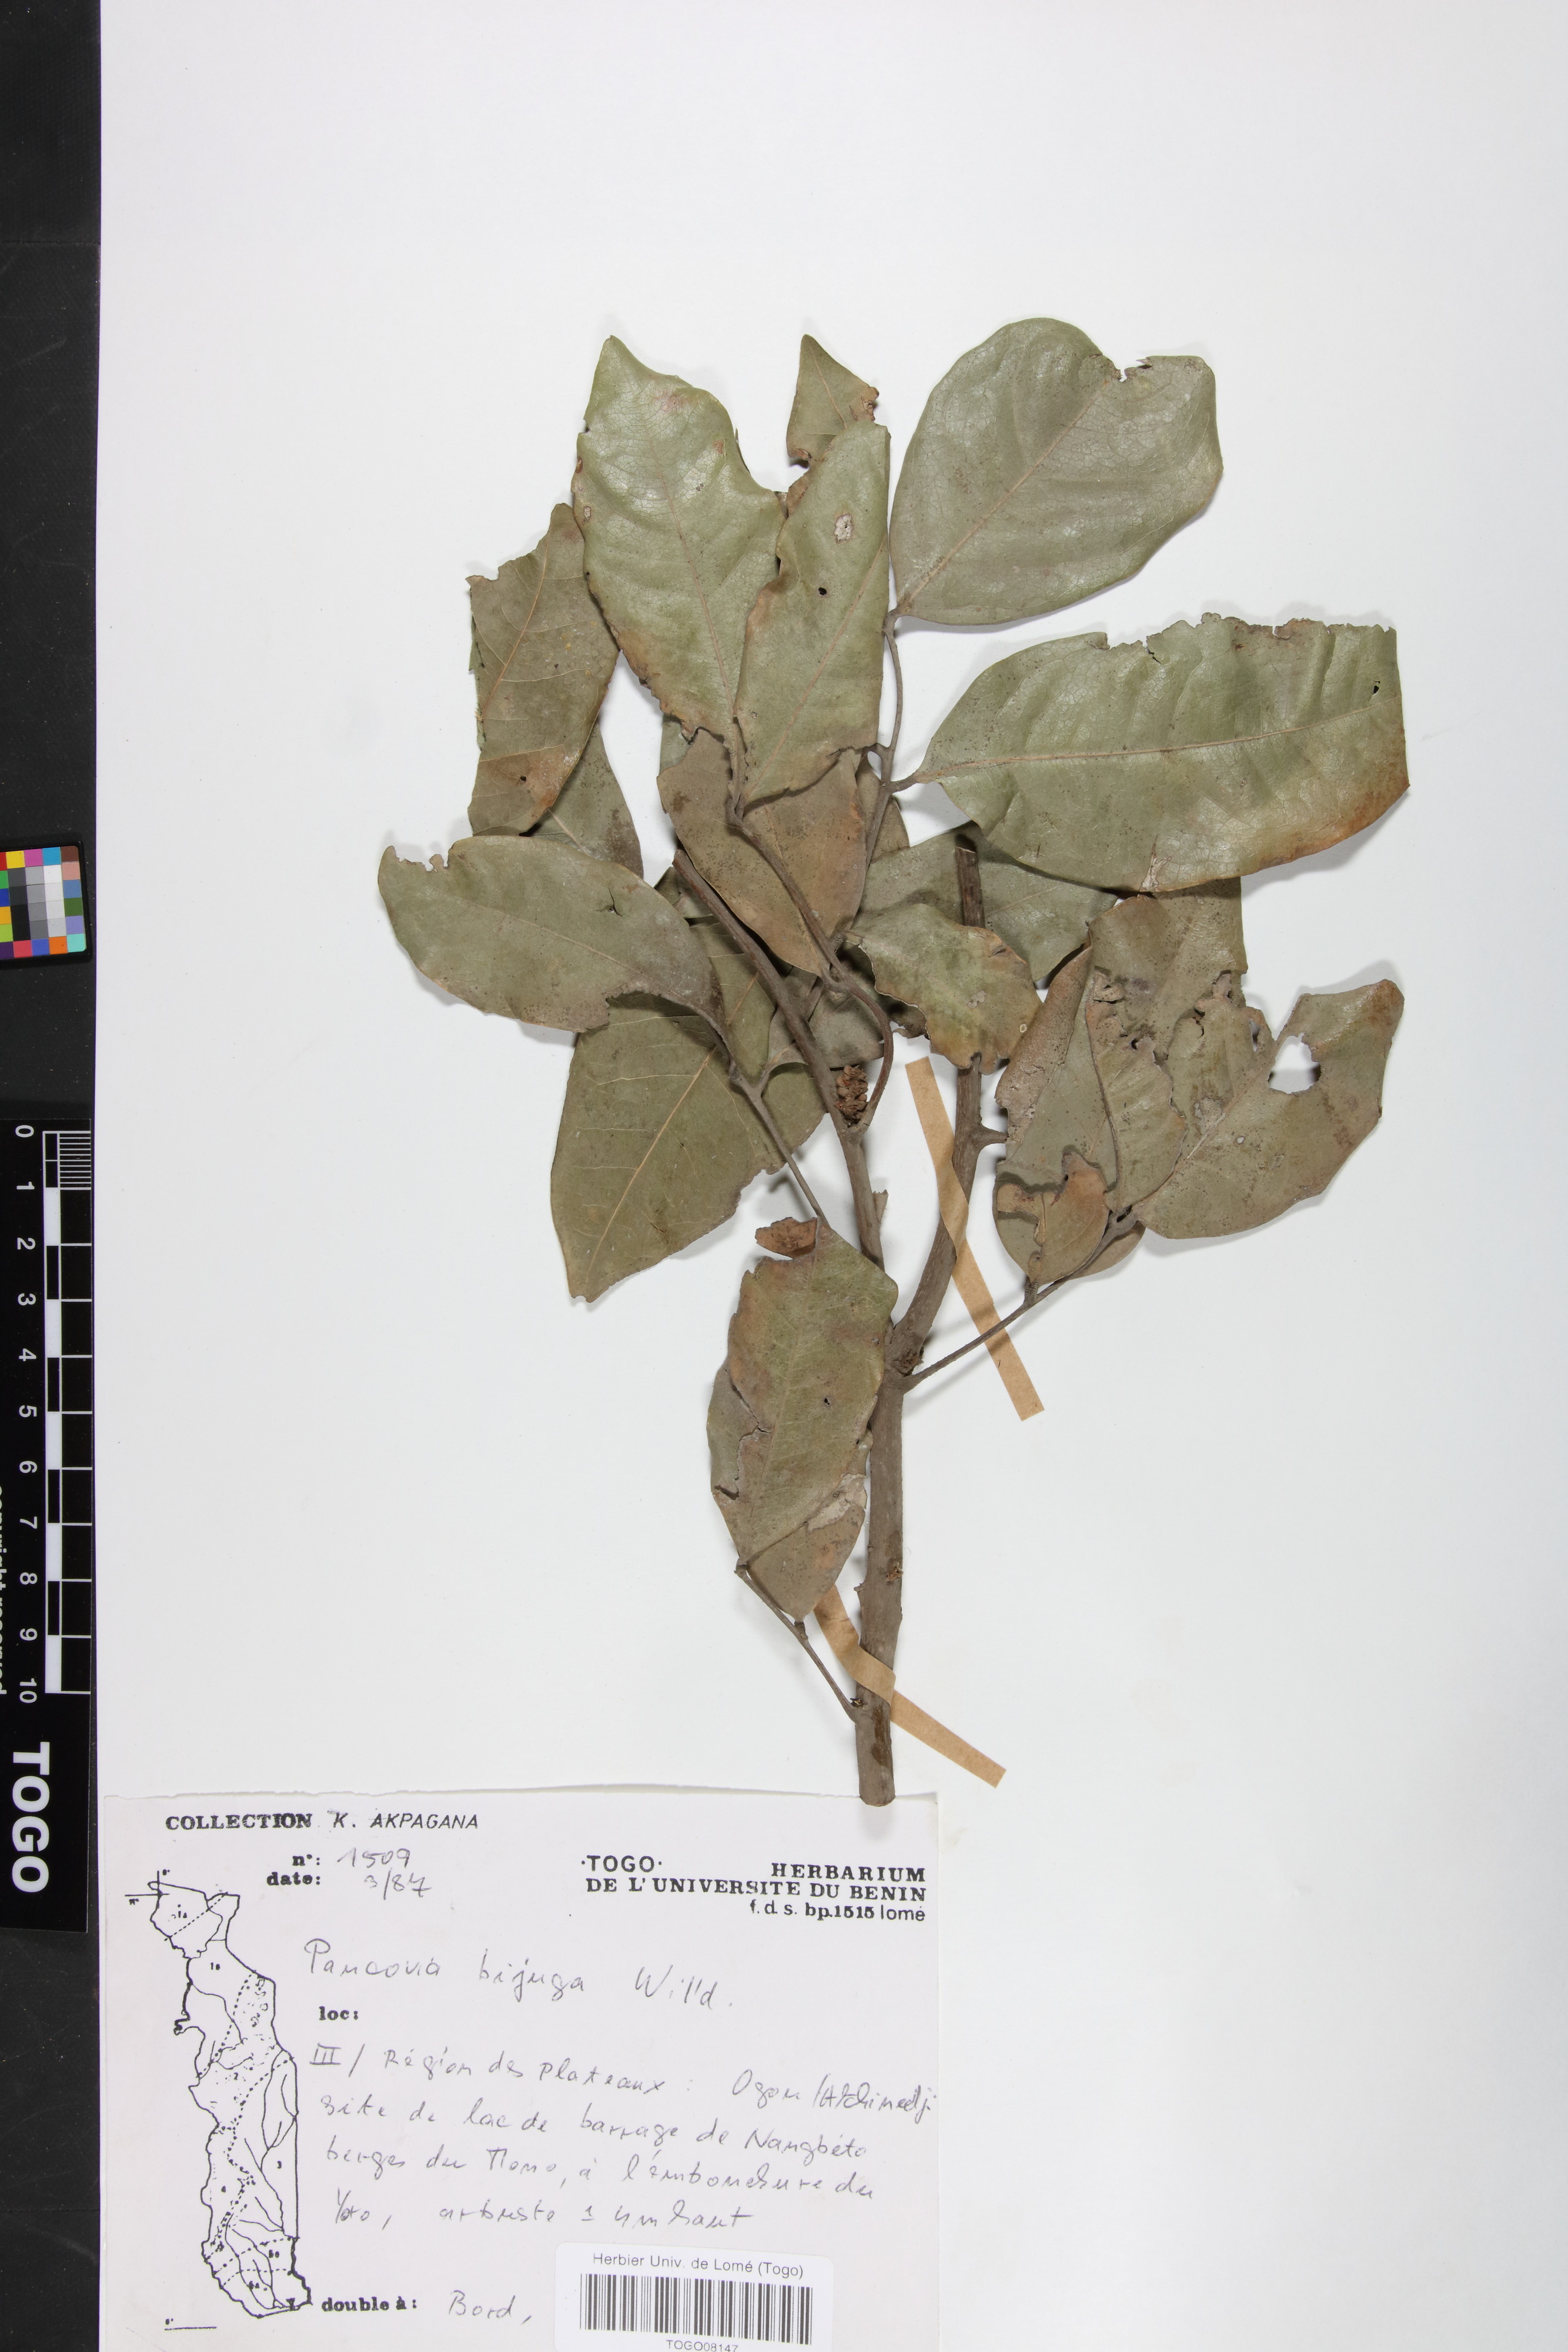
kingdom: Plantae
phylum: Tracheophyta
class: Magnoliopsida
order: Sapindales
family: Sapindaceae
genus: Pancovia
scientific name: Pancovia bijuga
